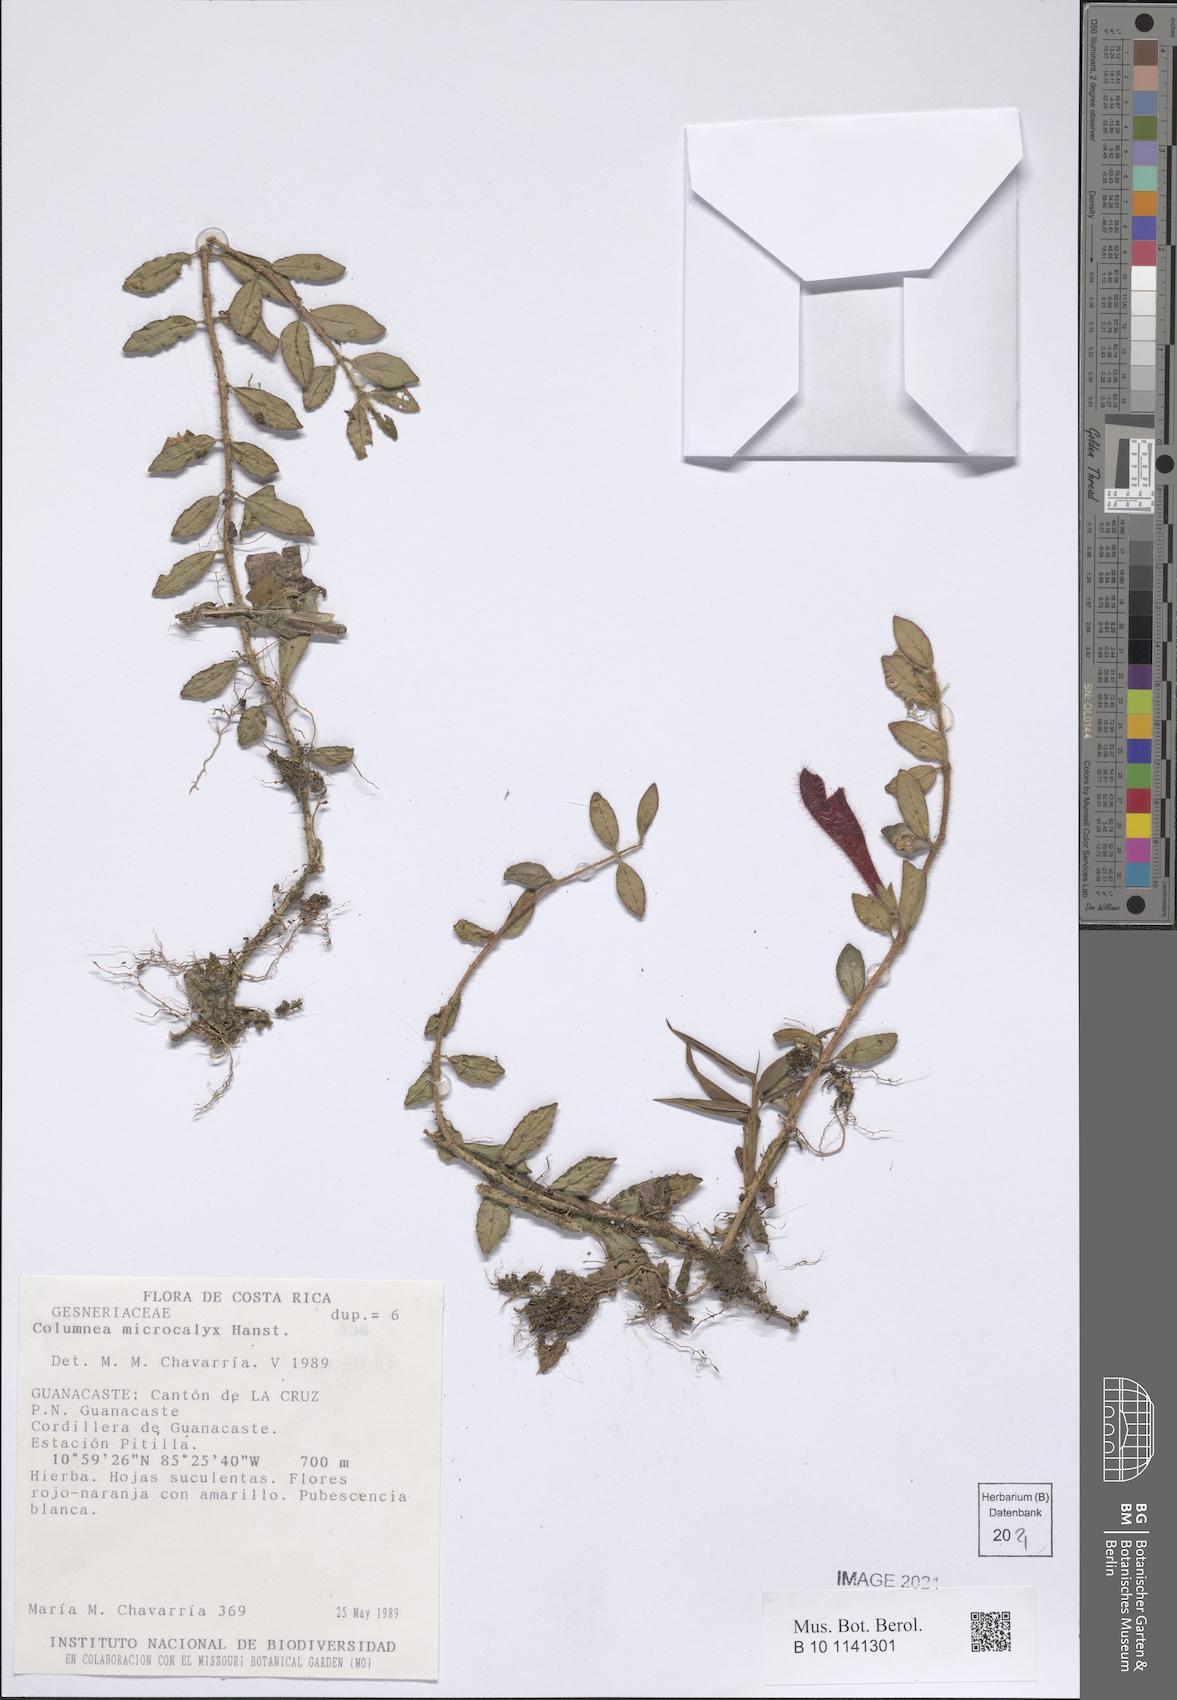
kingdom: Plantae
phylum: Tracheophyta
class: Magnoliopsida
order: Lamiales
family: Gesneriaceae
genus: Columnea
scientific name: Columnea microcalyx
